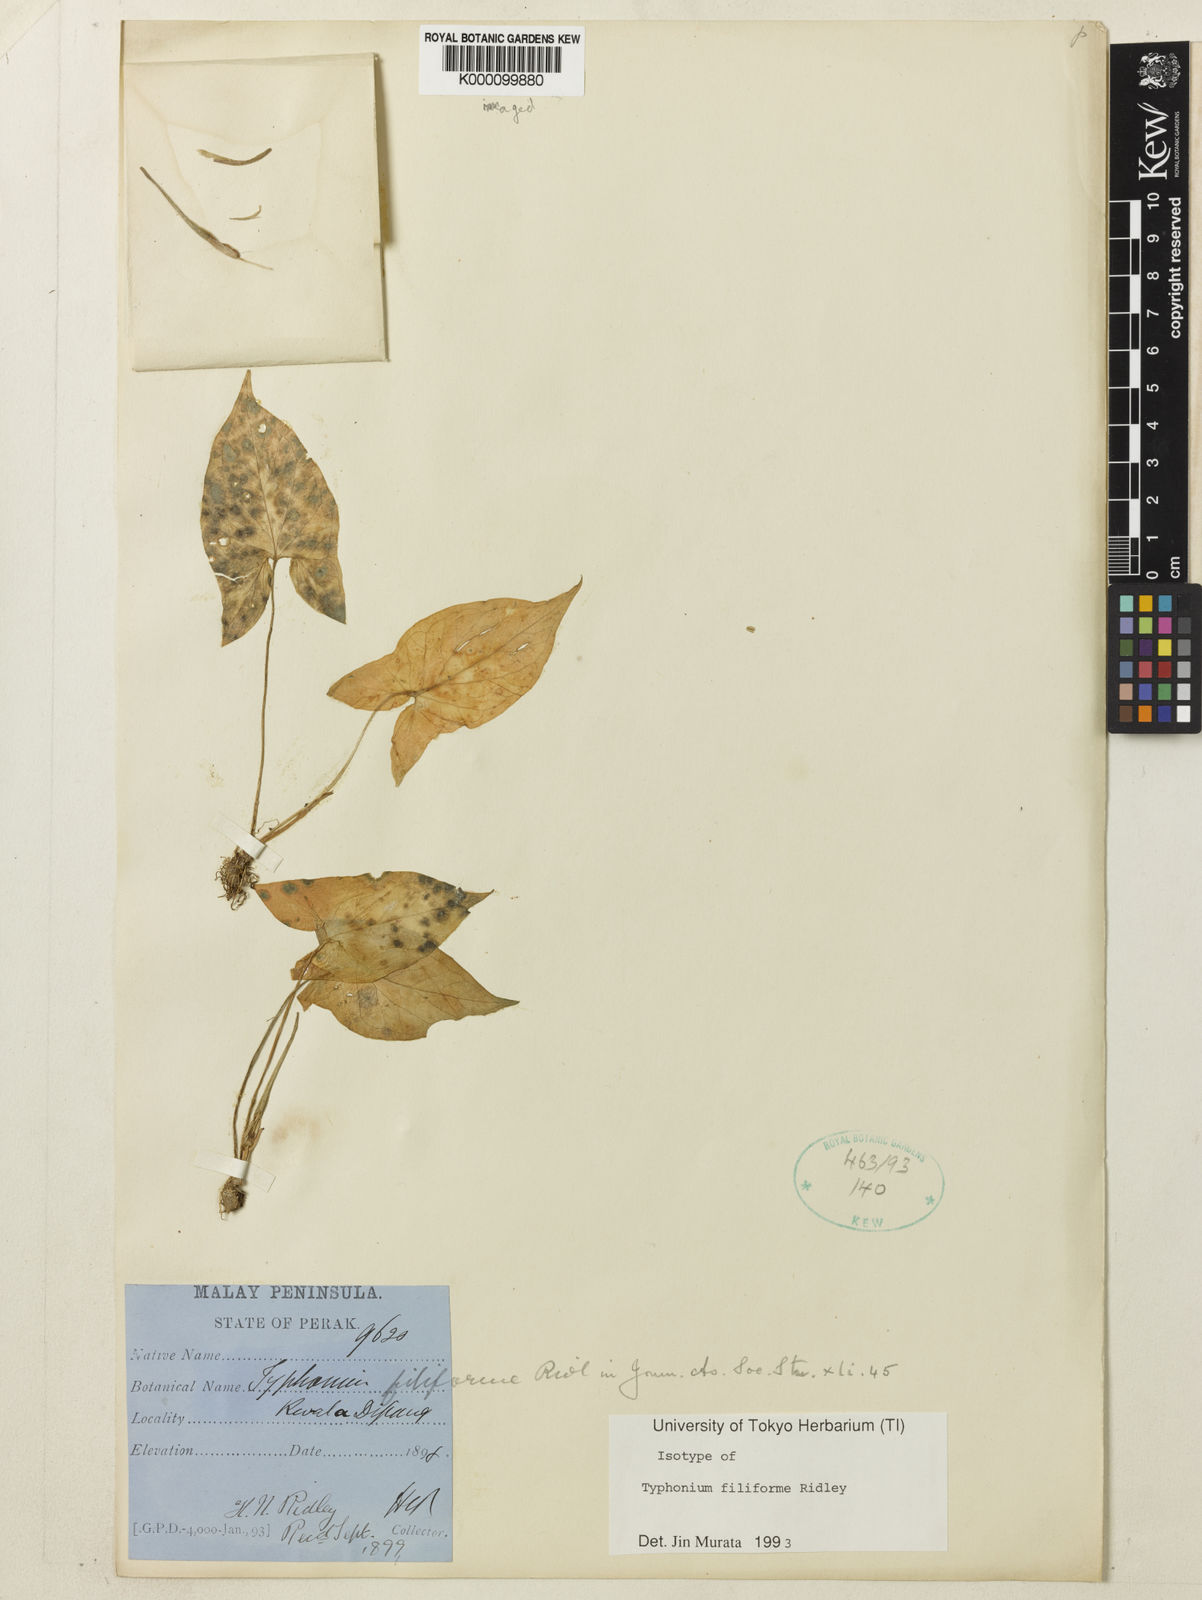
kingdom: Plantae
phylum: Tracheophyta
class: Liliopsida
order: Alismatales
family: Araceae
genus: Typhonium
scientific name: Typhonium filiforme
